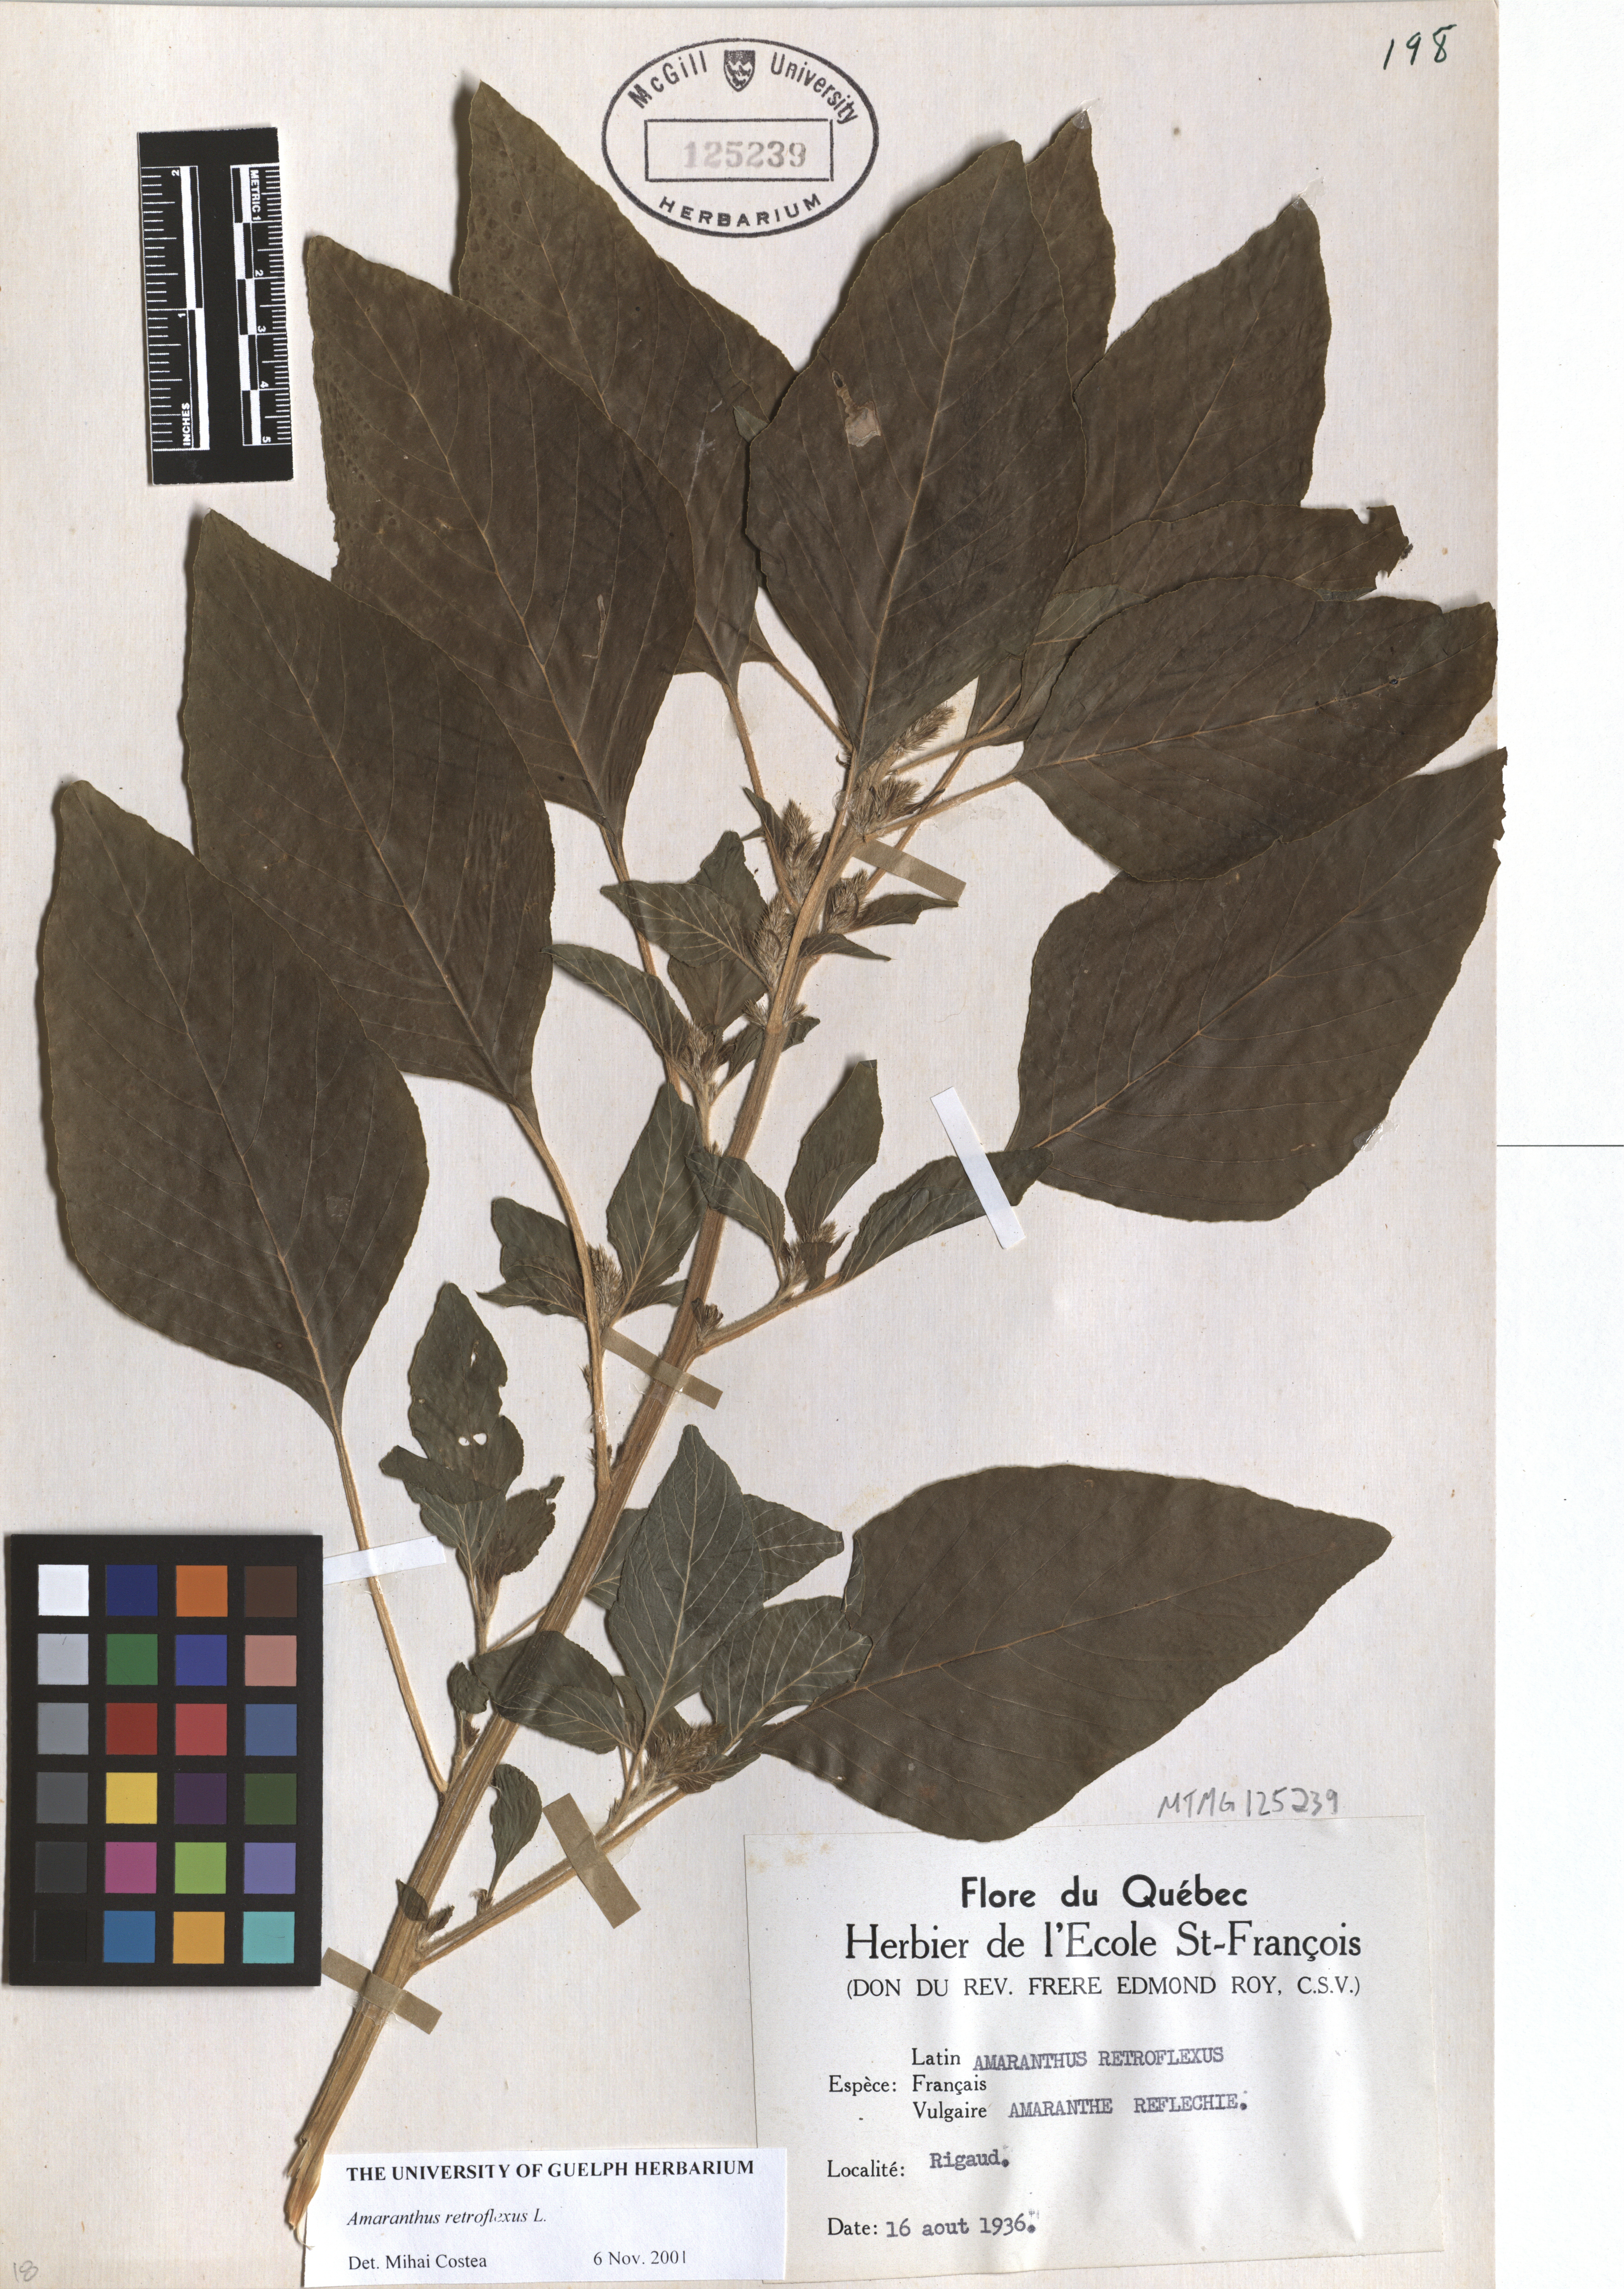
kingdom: Plantae
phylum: Tracheophyta
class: Magnoliopsida
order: Caryophyllales
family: Amaranthaceae
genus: Amaranthus
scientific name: Amaranthus retroflexus
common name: Redroot amaranth
